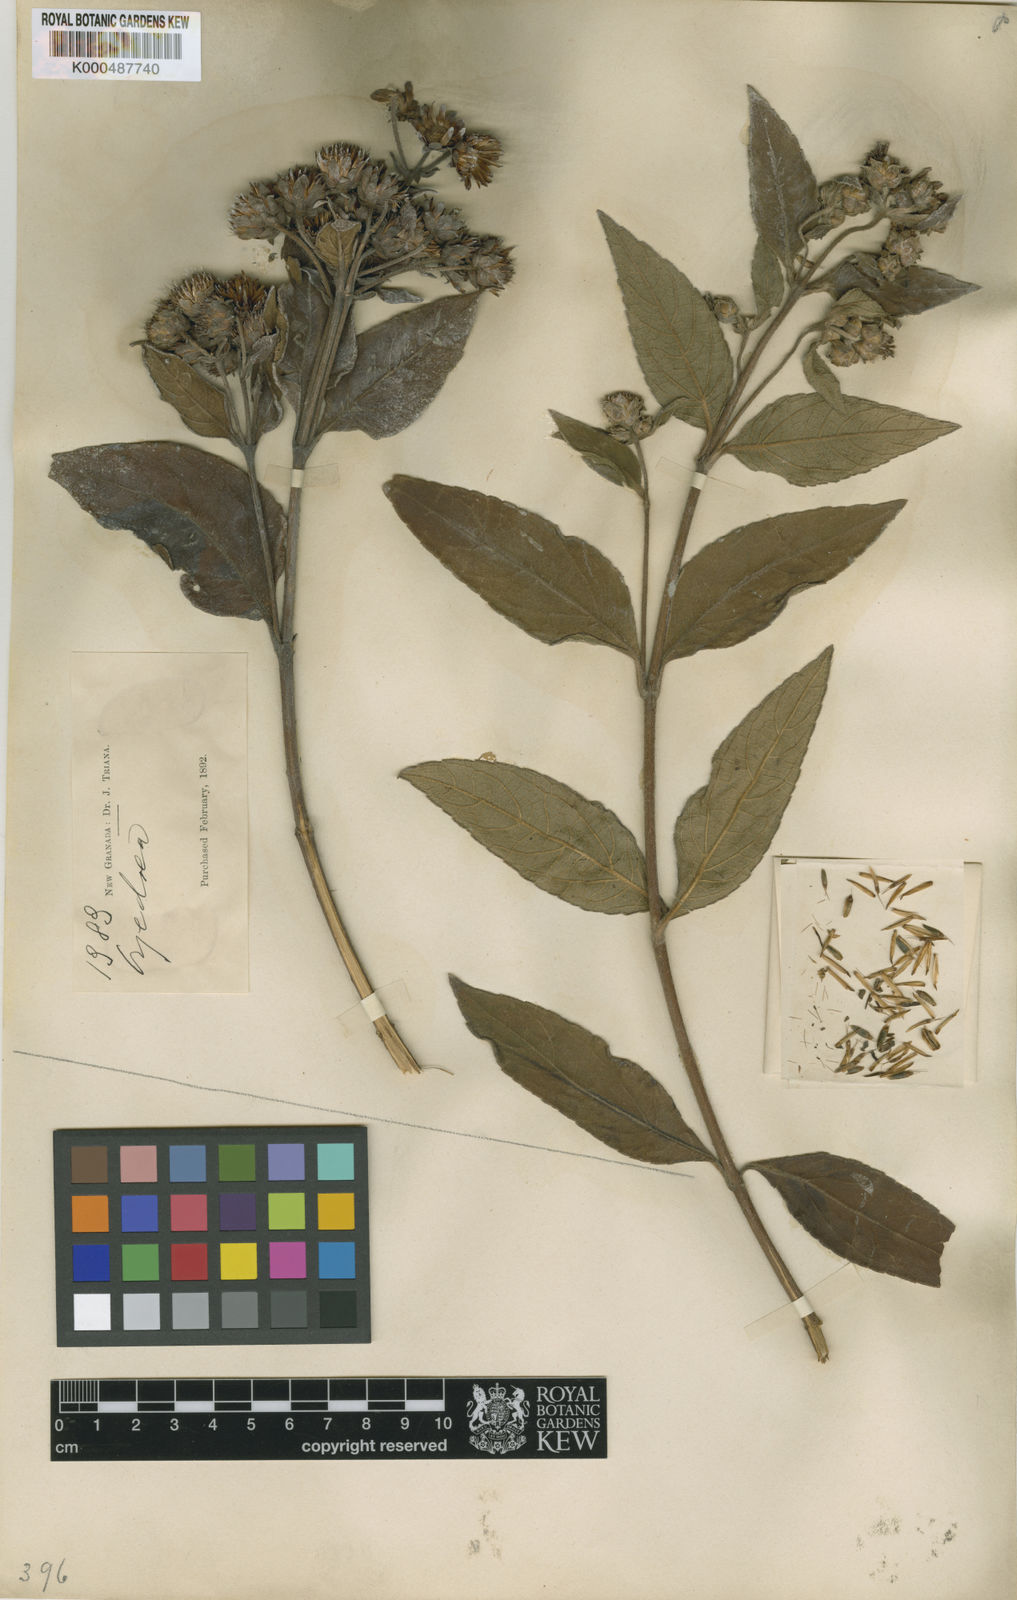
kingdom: Plantae
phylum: Tracheophyta
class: Magnoliopsida
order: Asterales
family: Asteraceae
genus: Oyedaea
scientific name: Oyedaea reticulata
